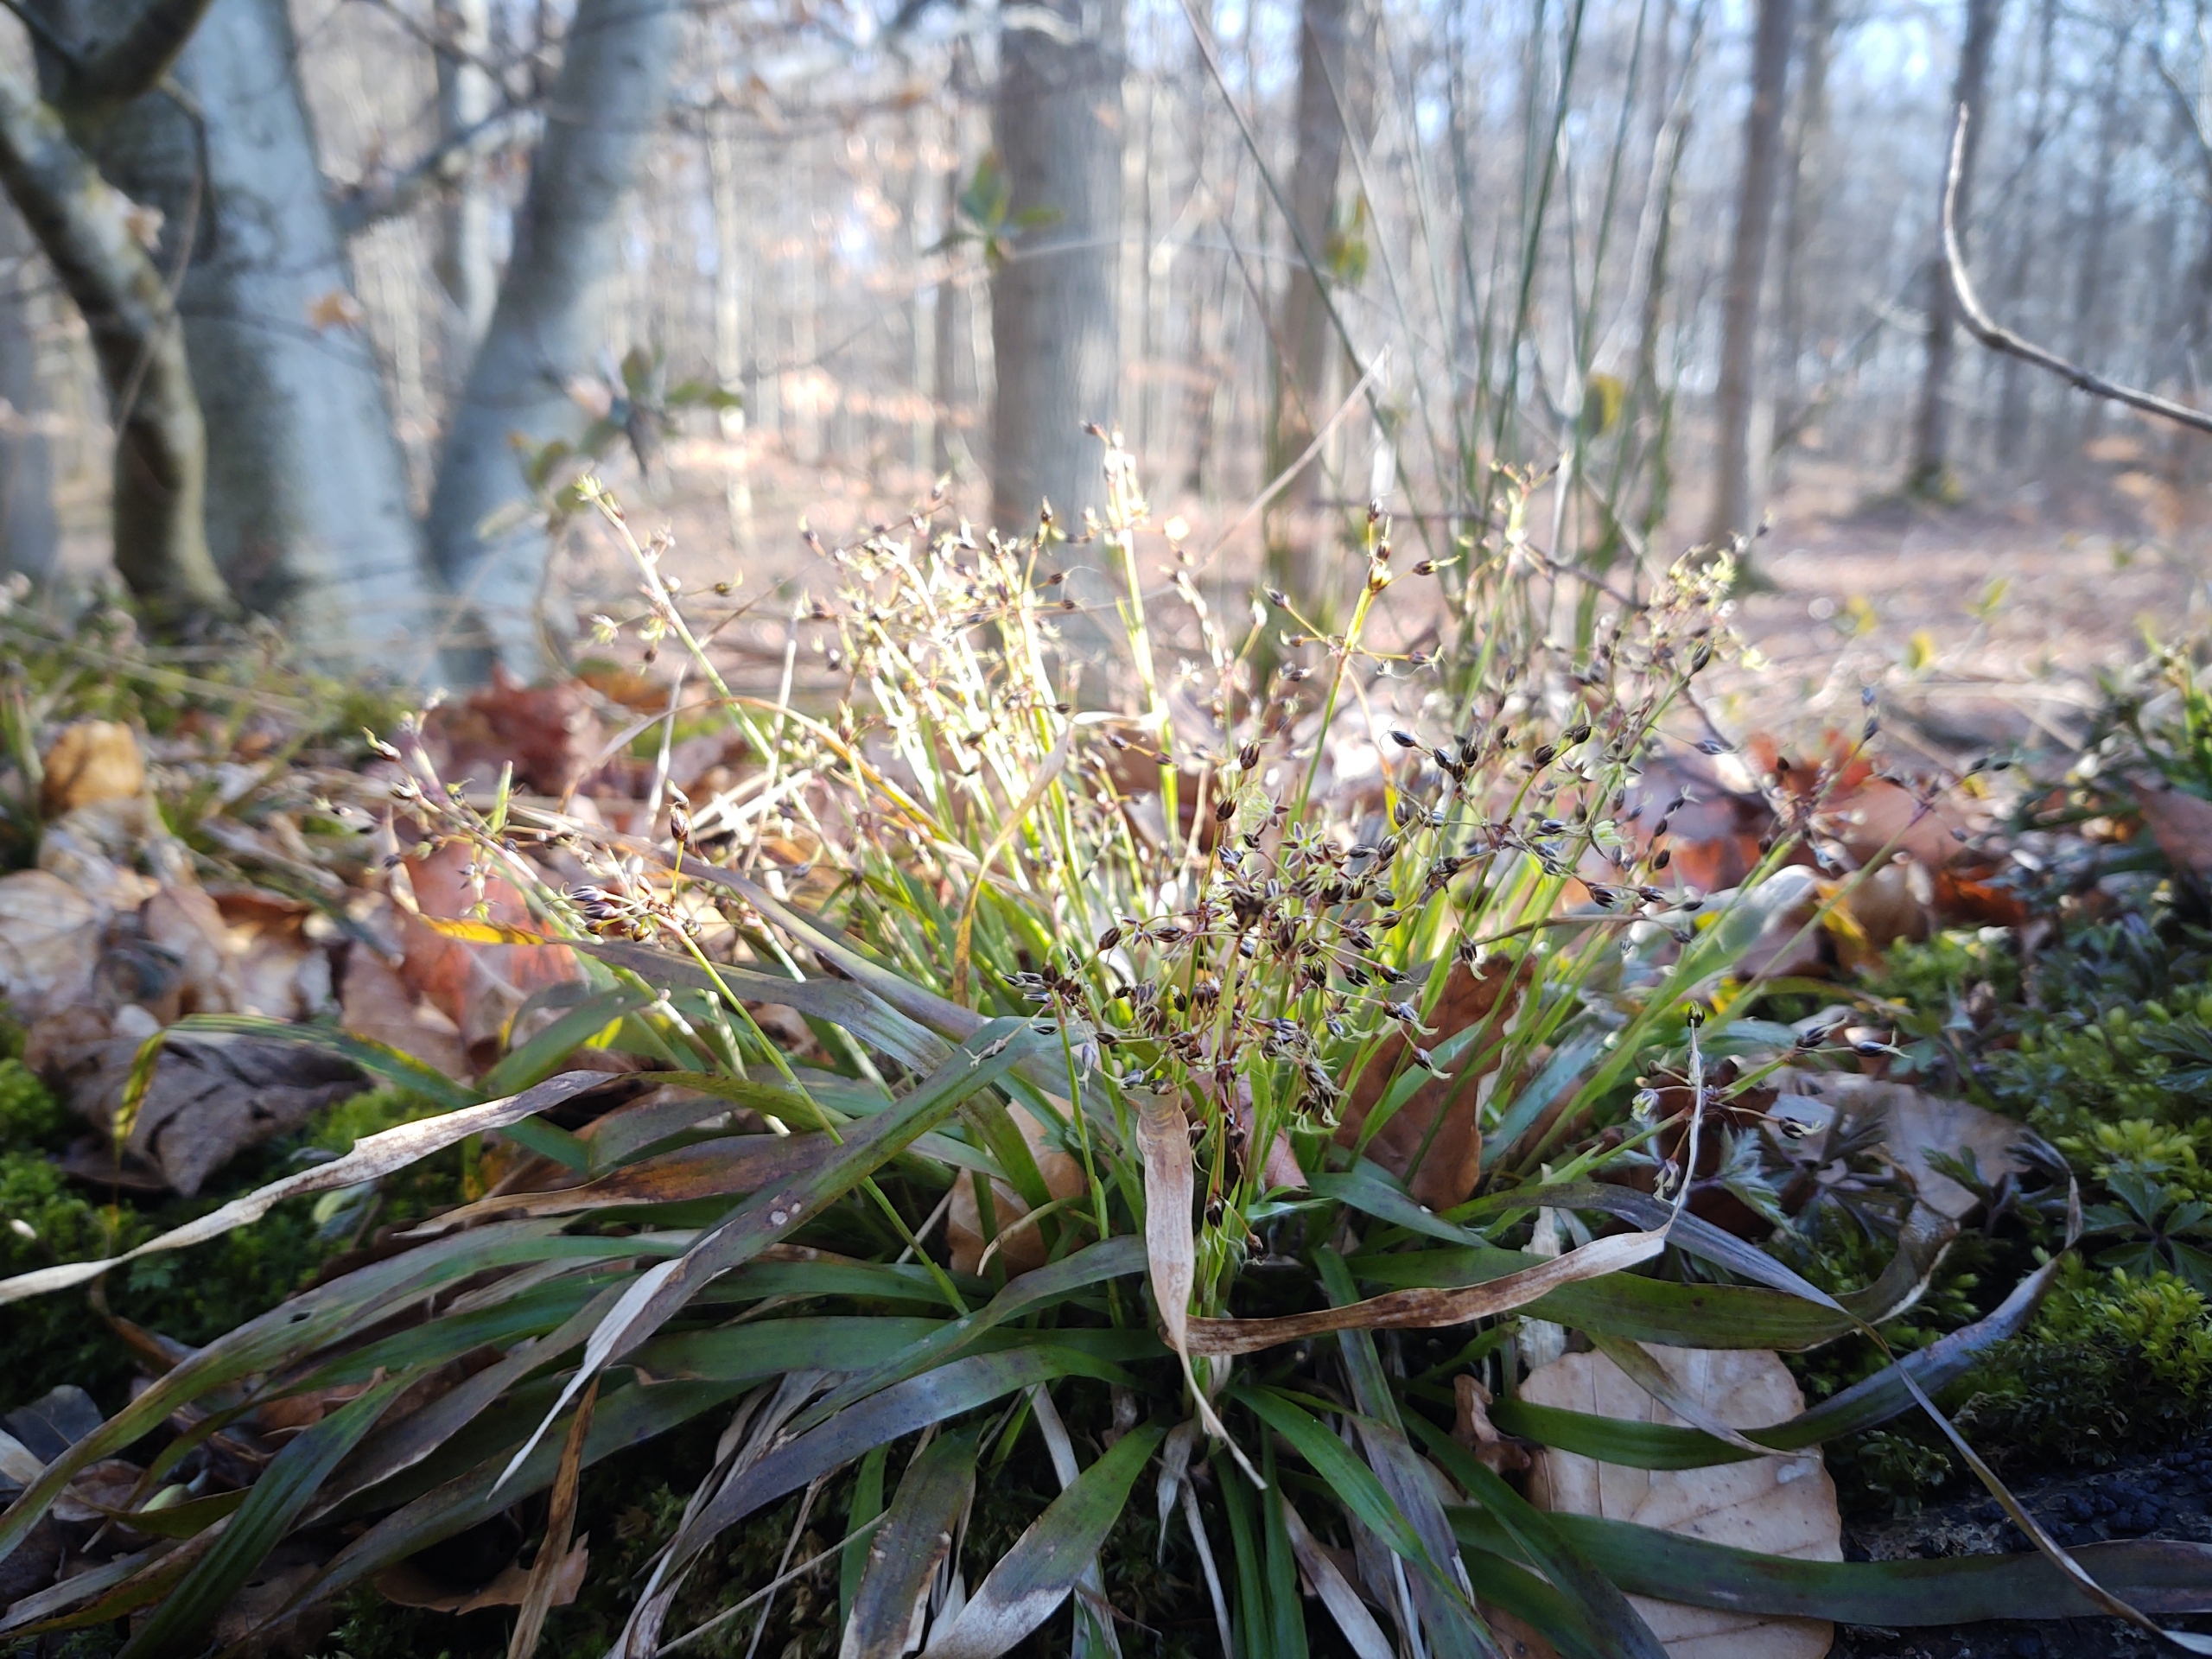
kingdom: Plantae
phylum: Tracheophyta
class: Liliopsida
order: Poales
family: Juncaceae
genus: Luzula
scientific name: Luzula pilosa
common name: Håret frytle
